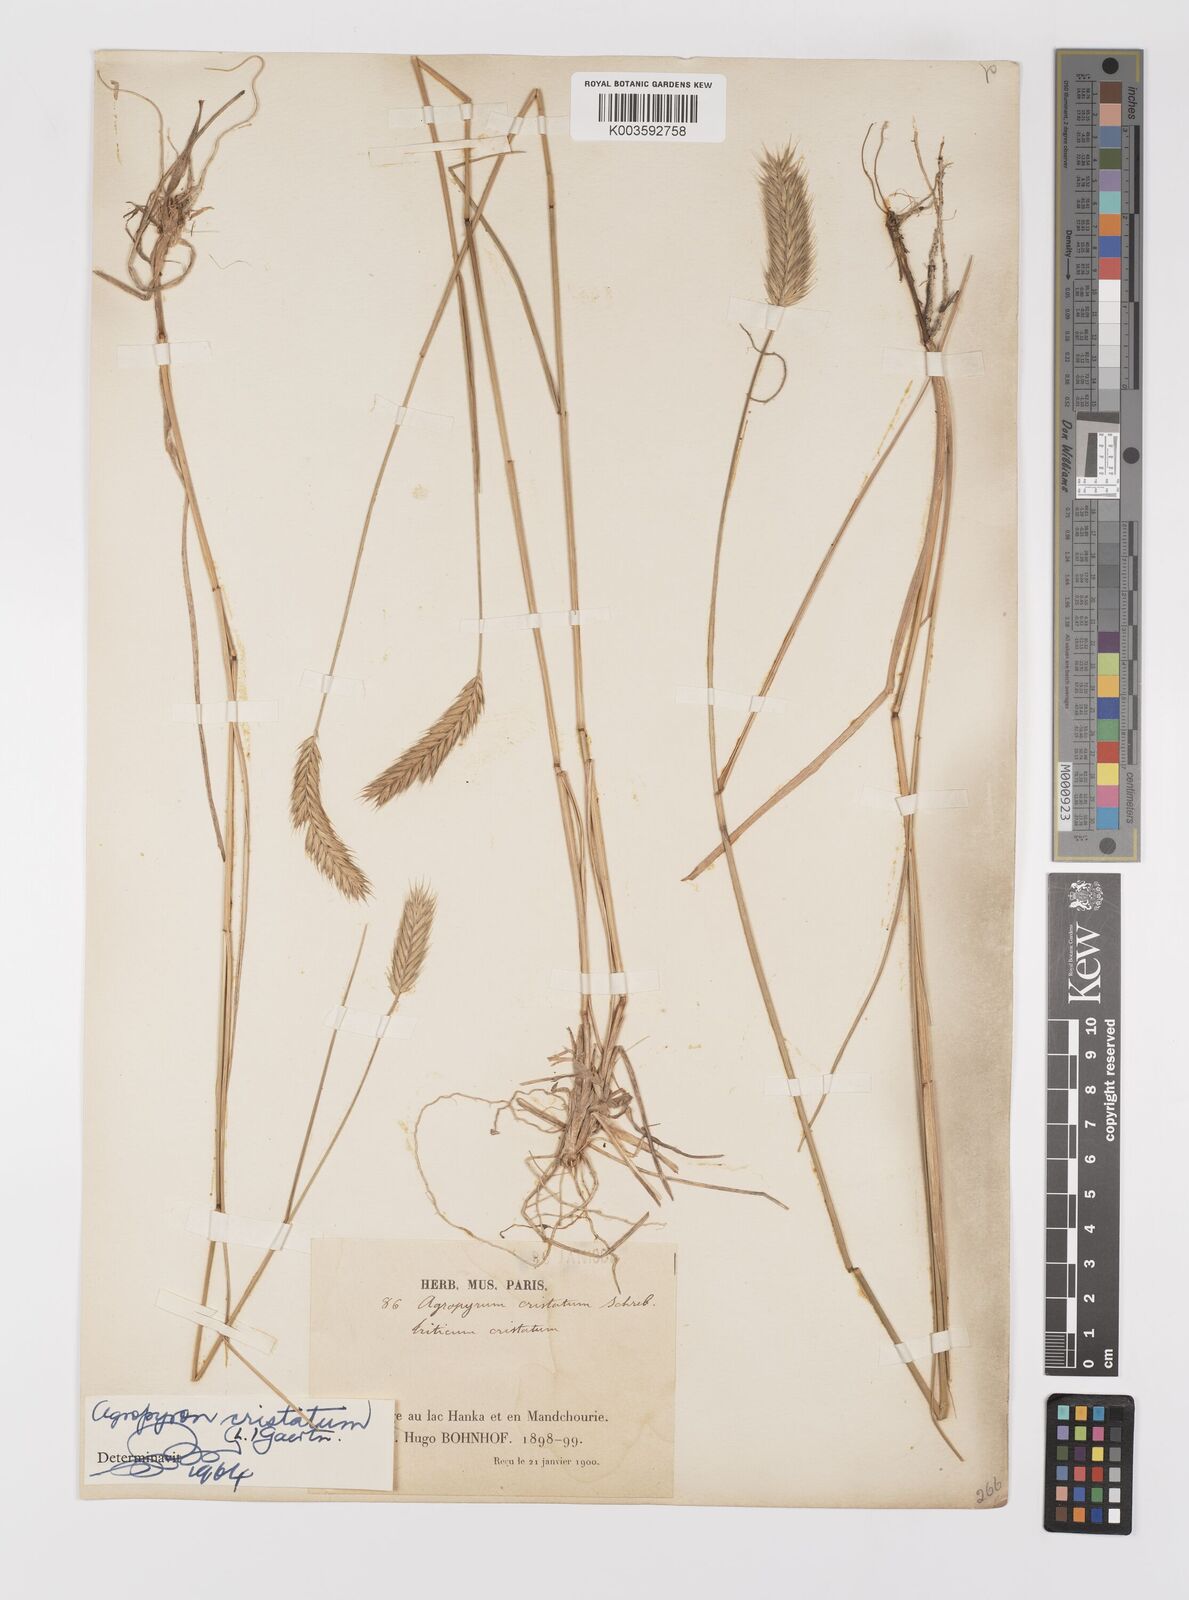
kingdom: Plantae
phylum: Tracheophyta
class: Liliopsida
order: Poales
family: Poaceae
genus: Agropyron
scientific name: Agropyron cristatum
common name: Crested wheatgrass
